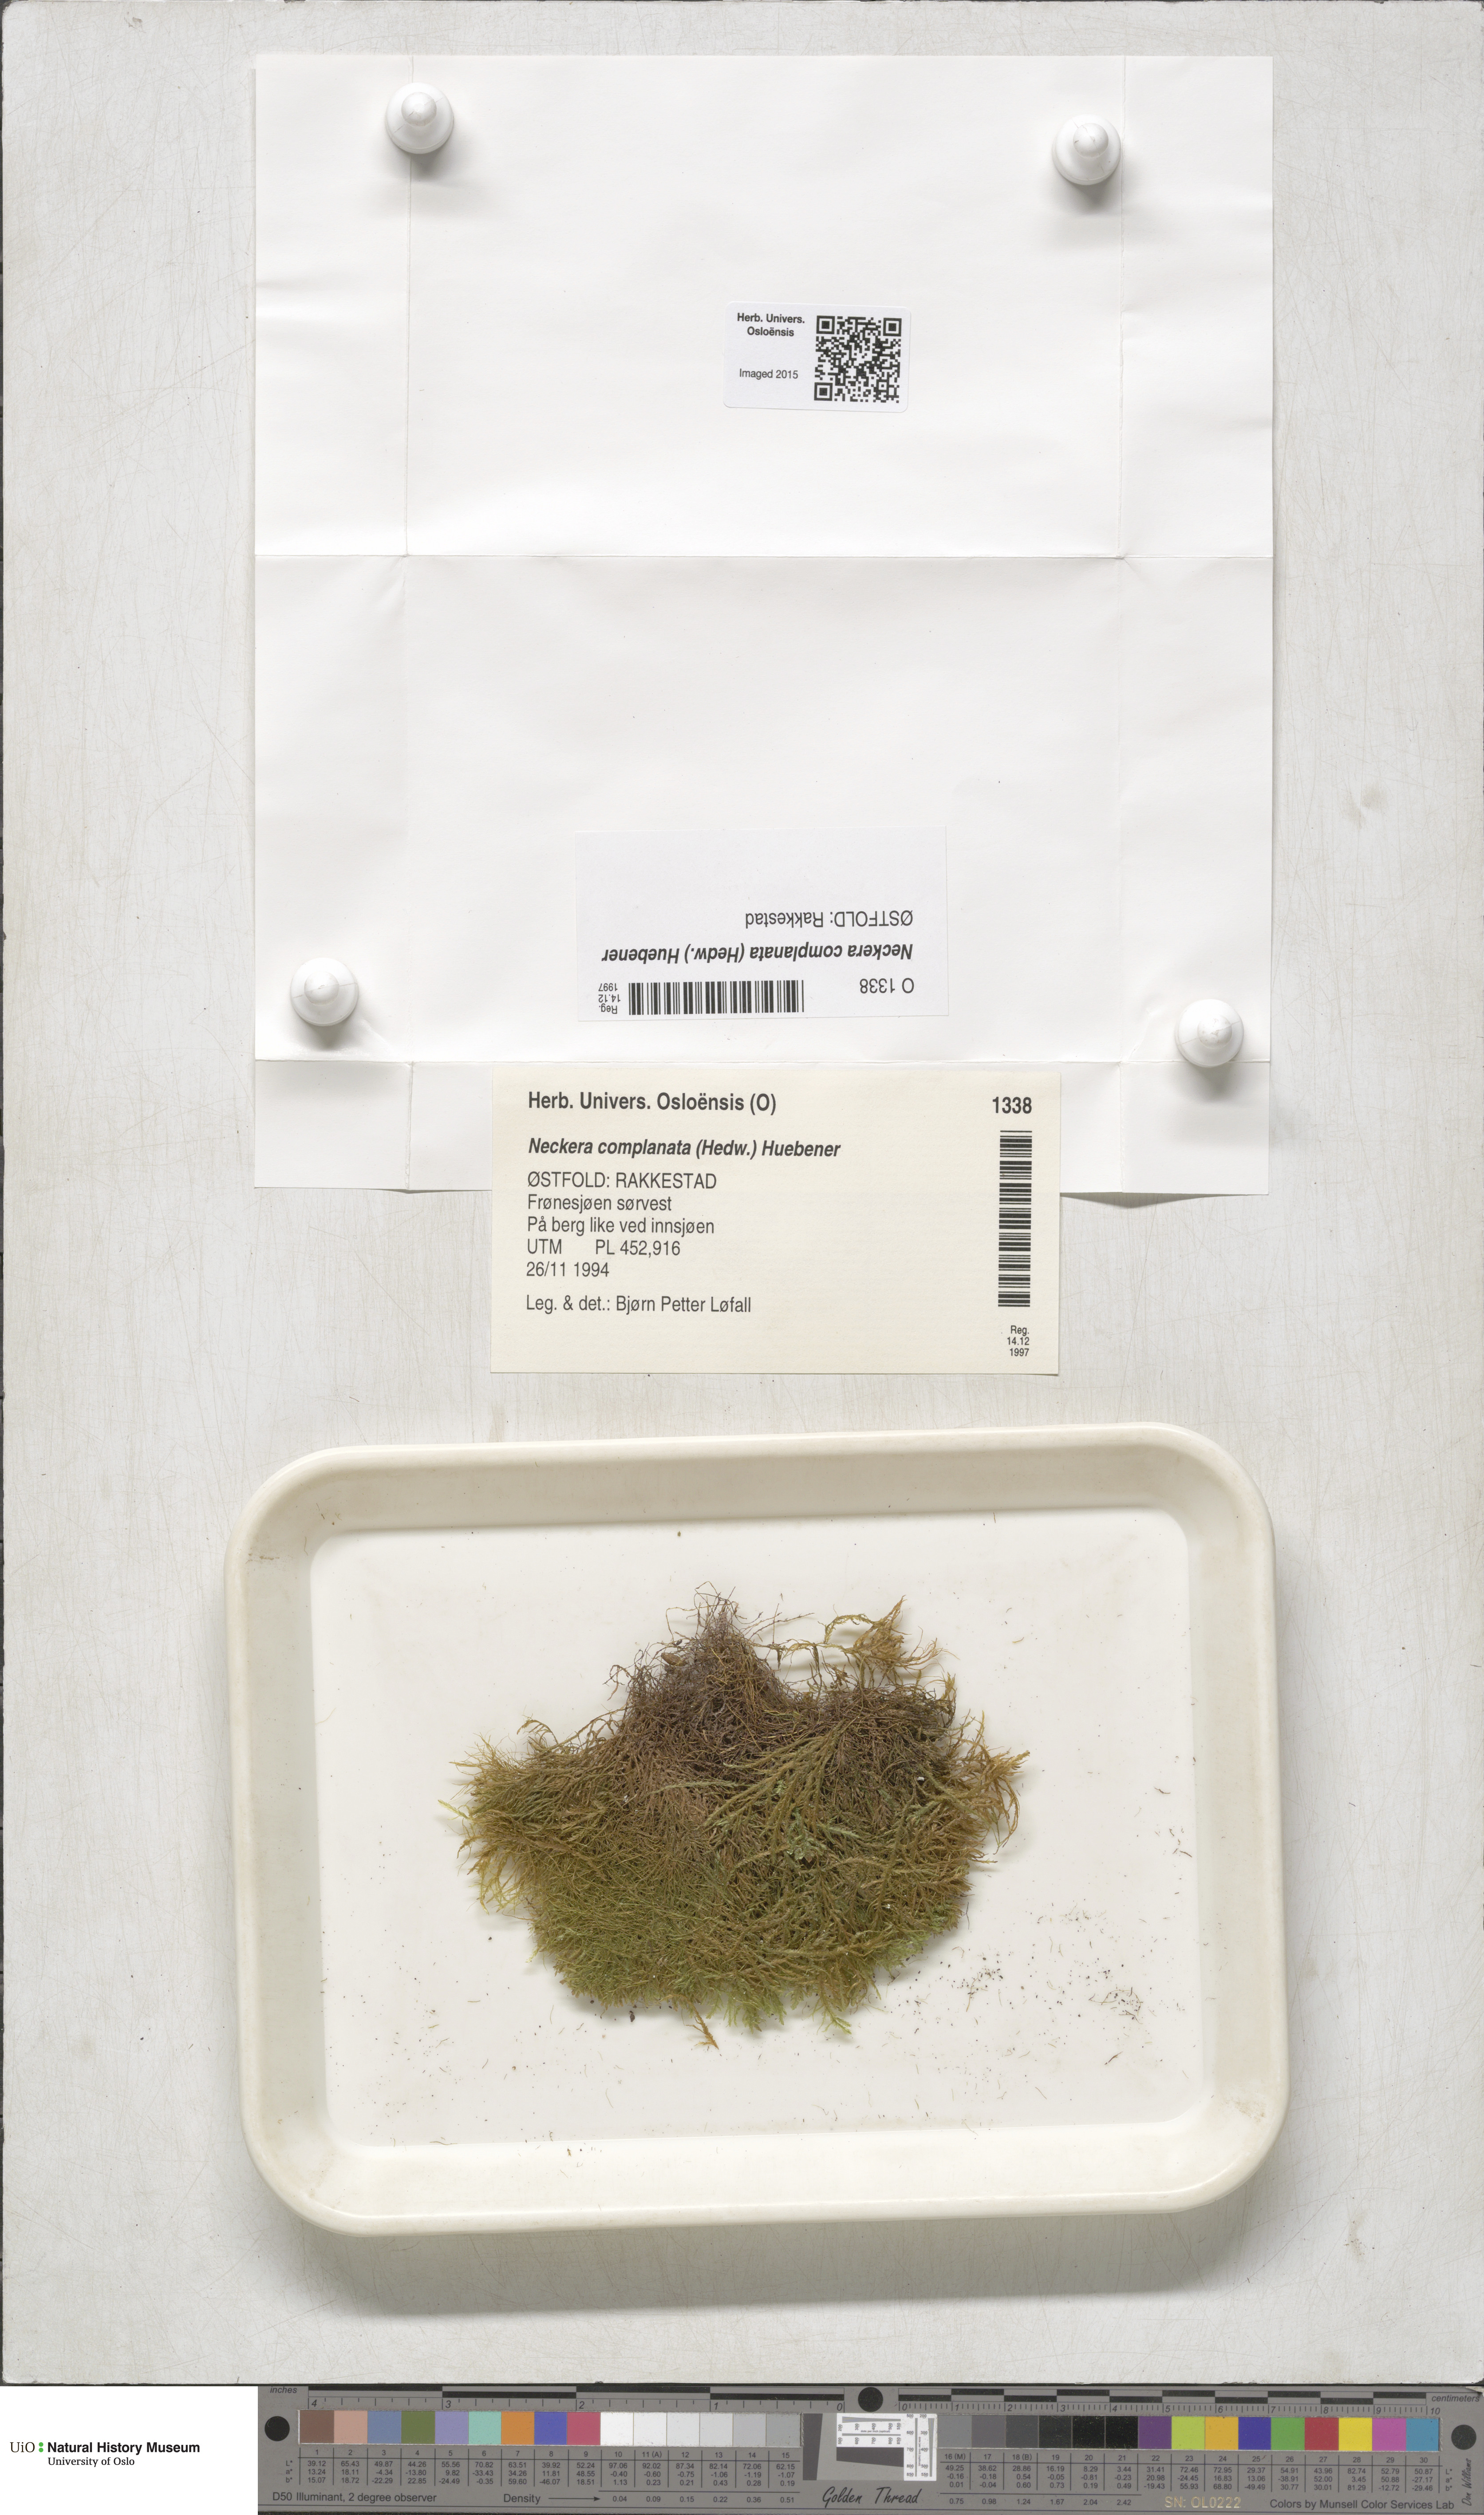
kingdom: Plantae
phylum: Bryophyta
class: Bryopsida
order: Hypnales
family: Neckeraceae
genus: Alleniella
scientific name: Alleniella complanata
